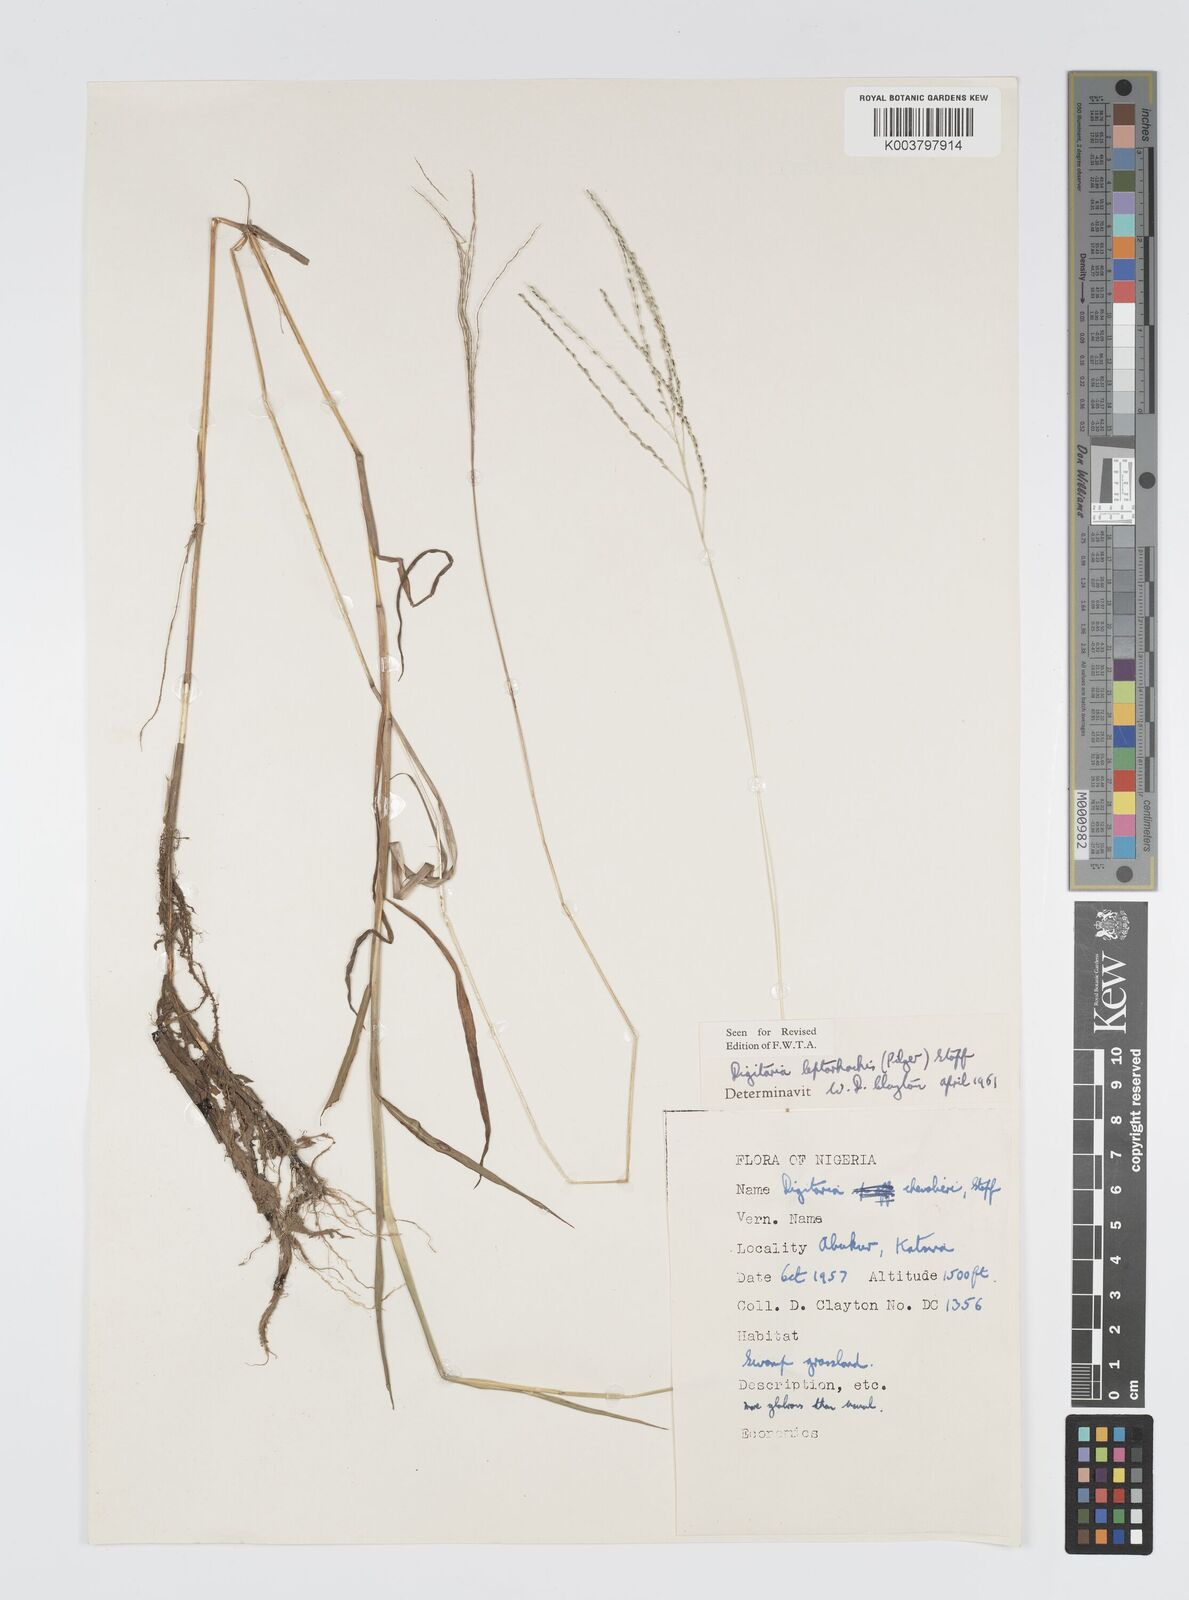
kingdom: Plantae
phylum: Tracheophyta
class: Liliopsida
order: Poales
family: Poaceae
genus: Digitaria
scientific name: Digitaria leptorhachis
